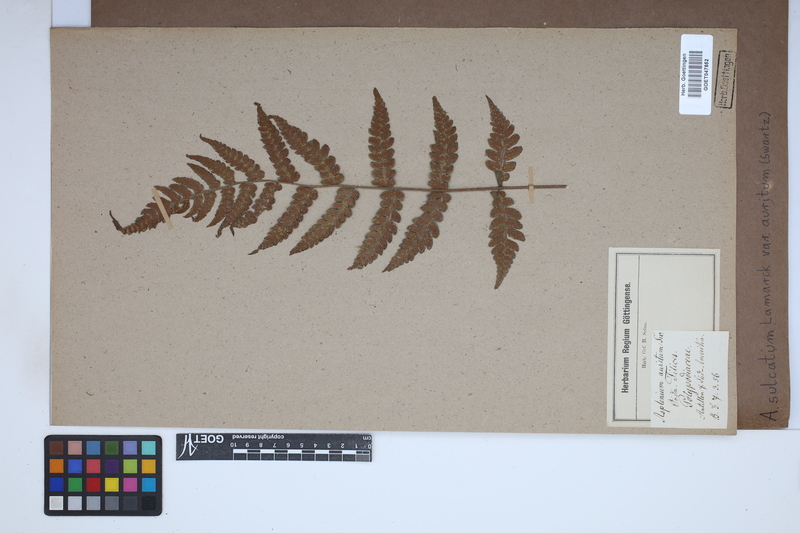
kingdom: Plantae
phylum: Tracheophyta
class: Polypodiopsida
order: Polypodiales
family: Aspleniaceae
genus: Asplenium
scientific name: Asplenium auritum
